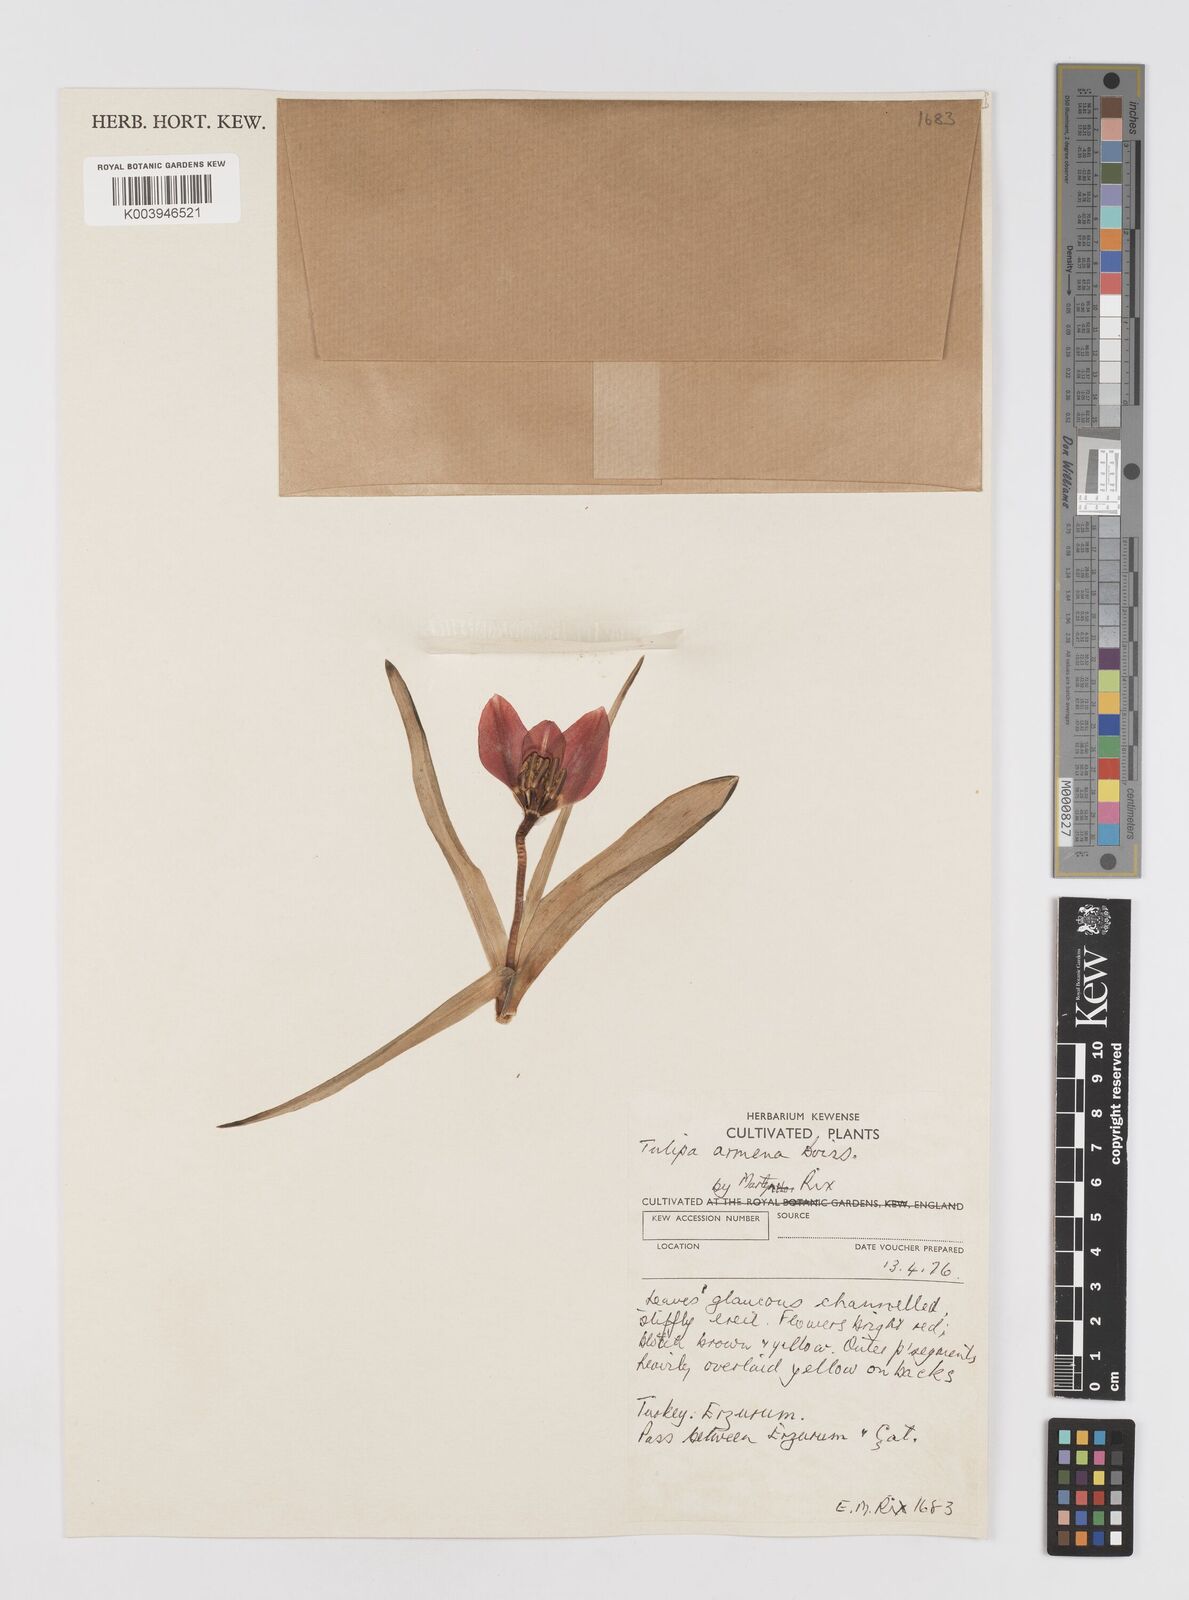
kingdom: Plantae
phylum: Tracheophyta
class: Liliopsida
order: Liliales
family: Liliaceae
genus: Tulipa
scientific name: Tulipa
